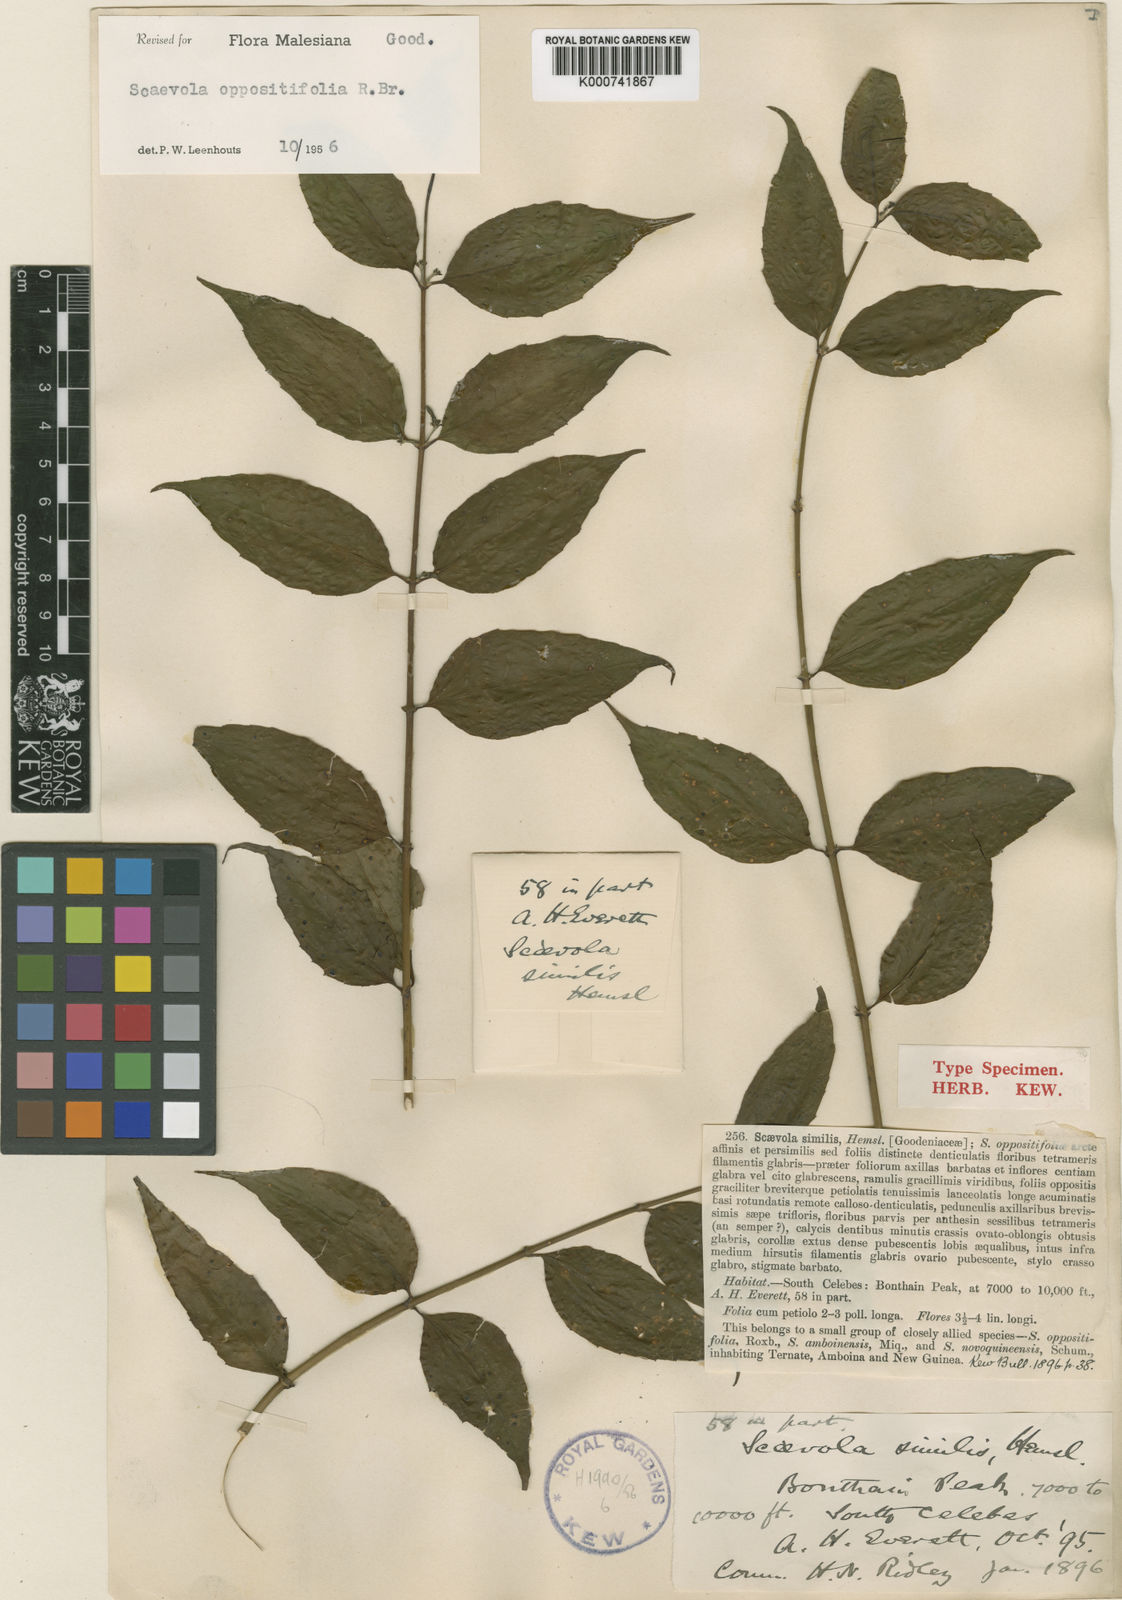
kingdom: Plantae
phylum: Tracheophyta
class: Magnoliopsida
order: Asterales
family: Goodeniaceae
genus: Scaevola
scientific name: Scaevola oppositifolia
